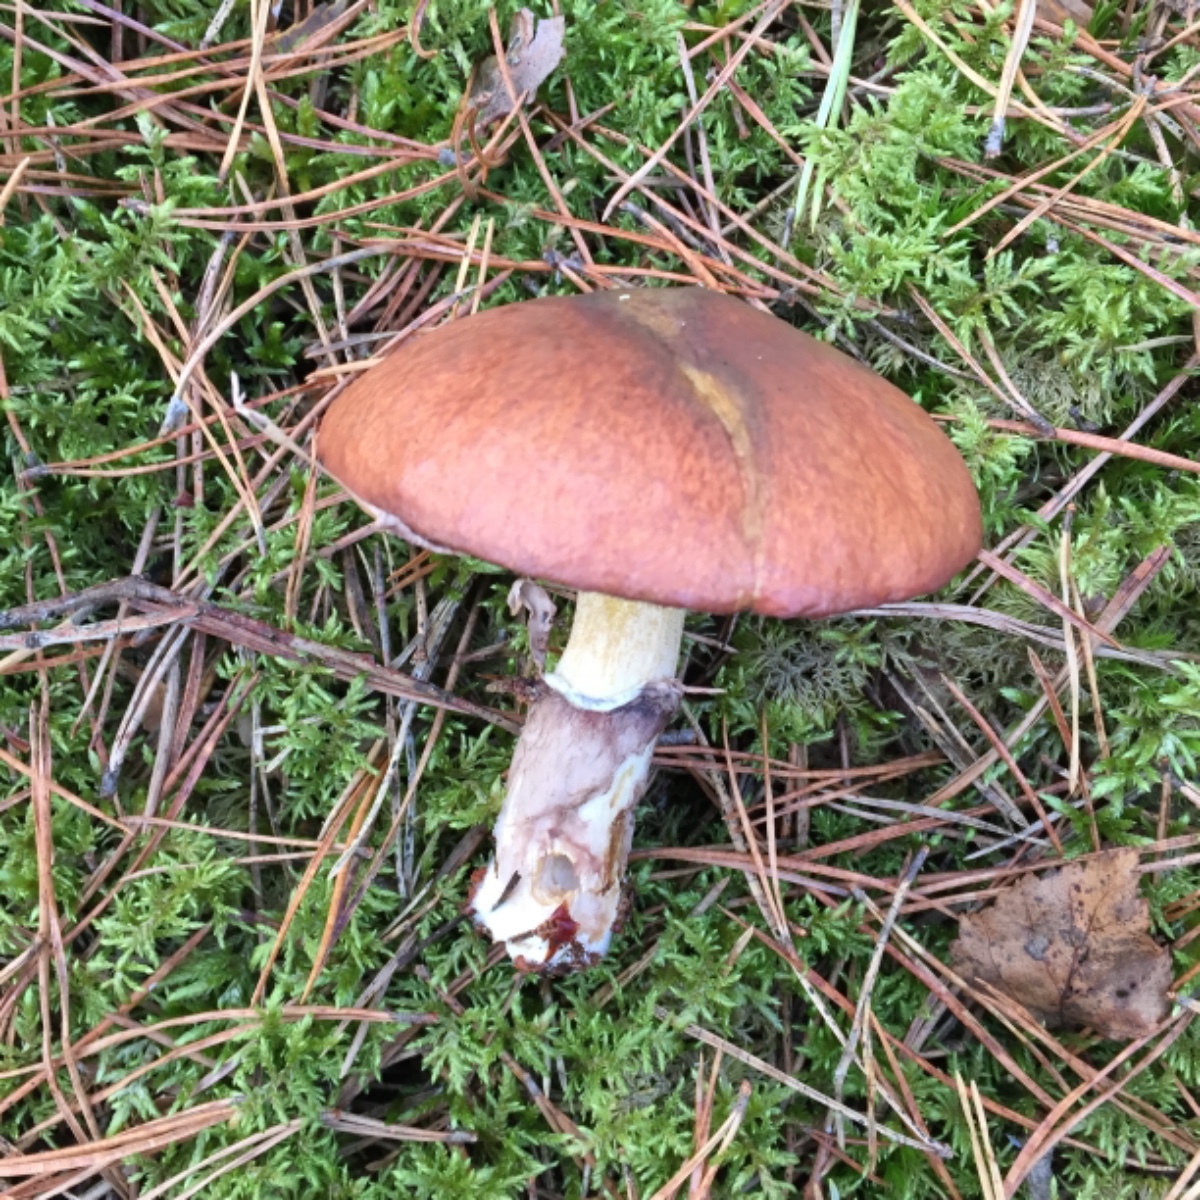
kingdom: Fungi
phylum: Basidiomycota
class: Agaricomycetes
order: Boletales
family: Suillaceae
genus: Suillus
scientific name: Suillus luteus
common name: brungul slimrørhat
